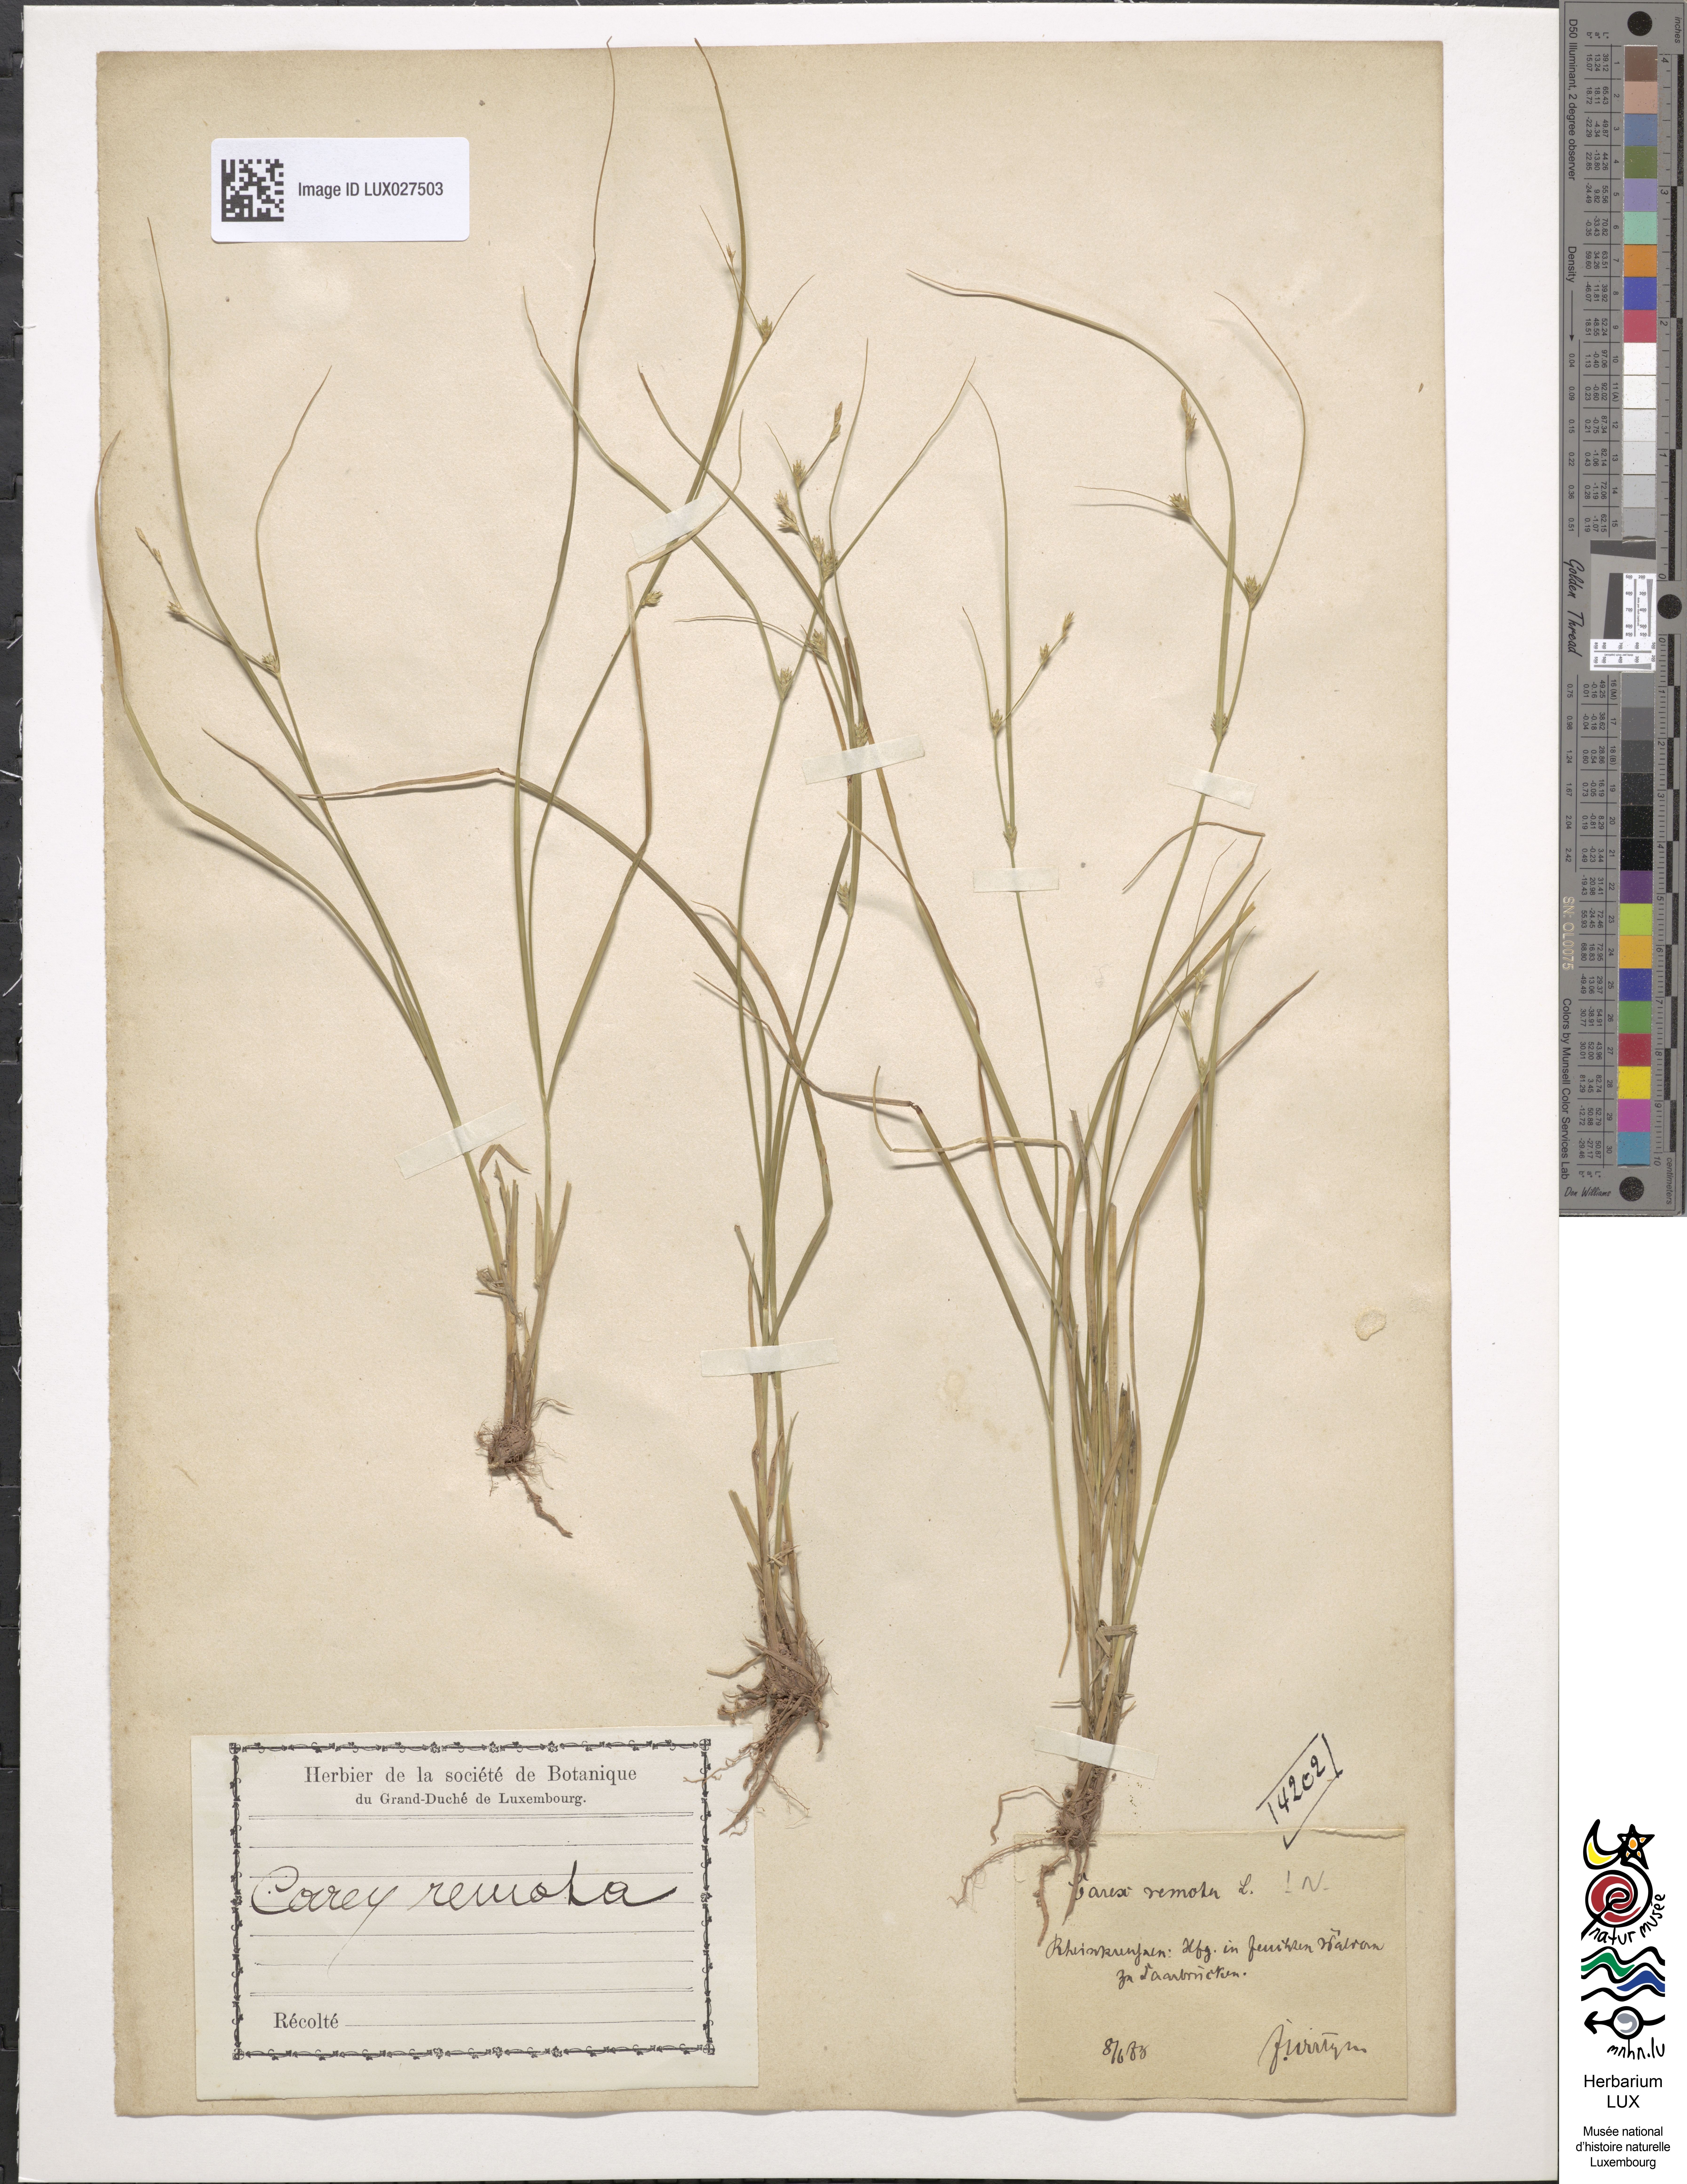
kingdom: Plantae
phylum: Tracheophyta
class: Liliopsida
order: Poales
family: Cyperaceae
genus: Carex
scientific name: Carex remota
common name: Remote sedge
